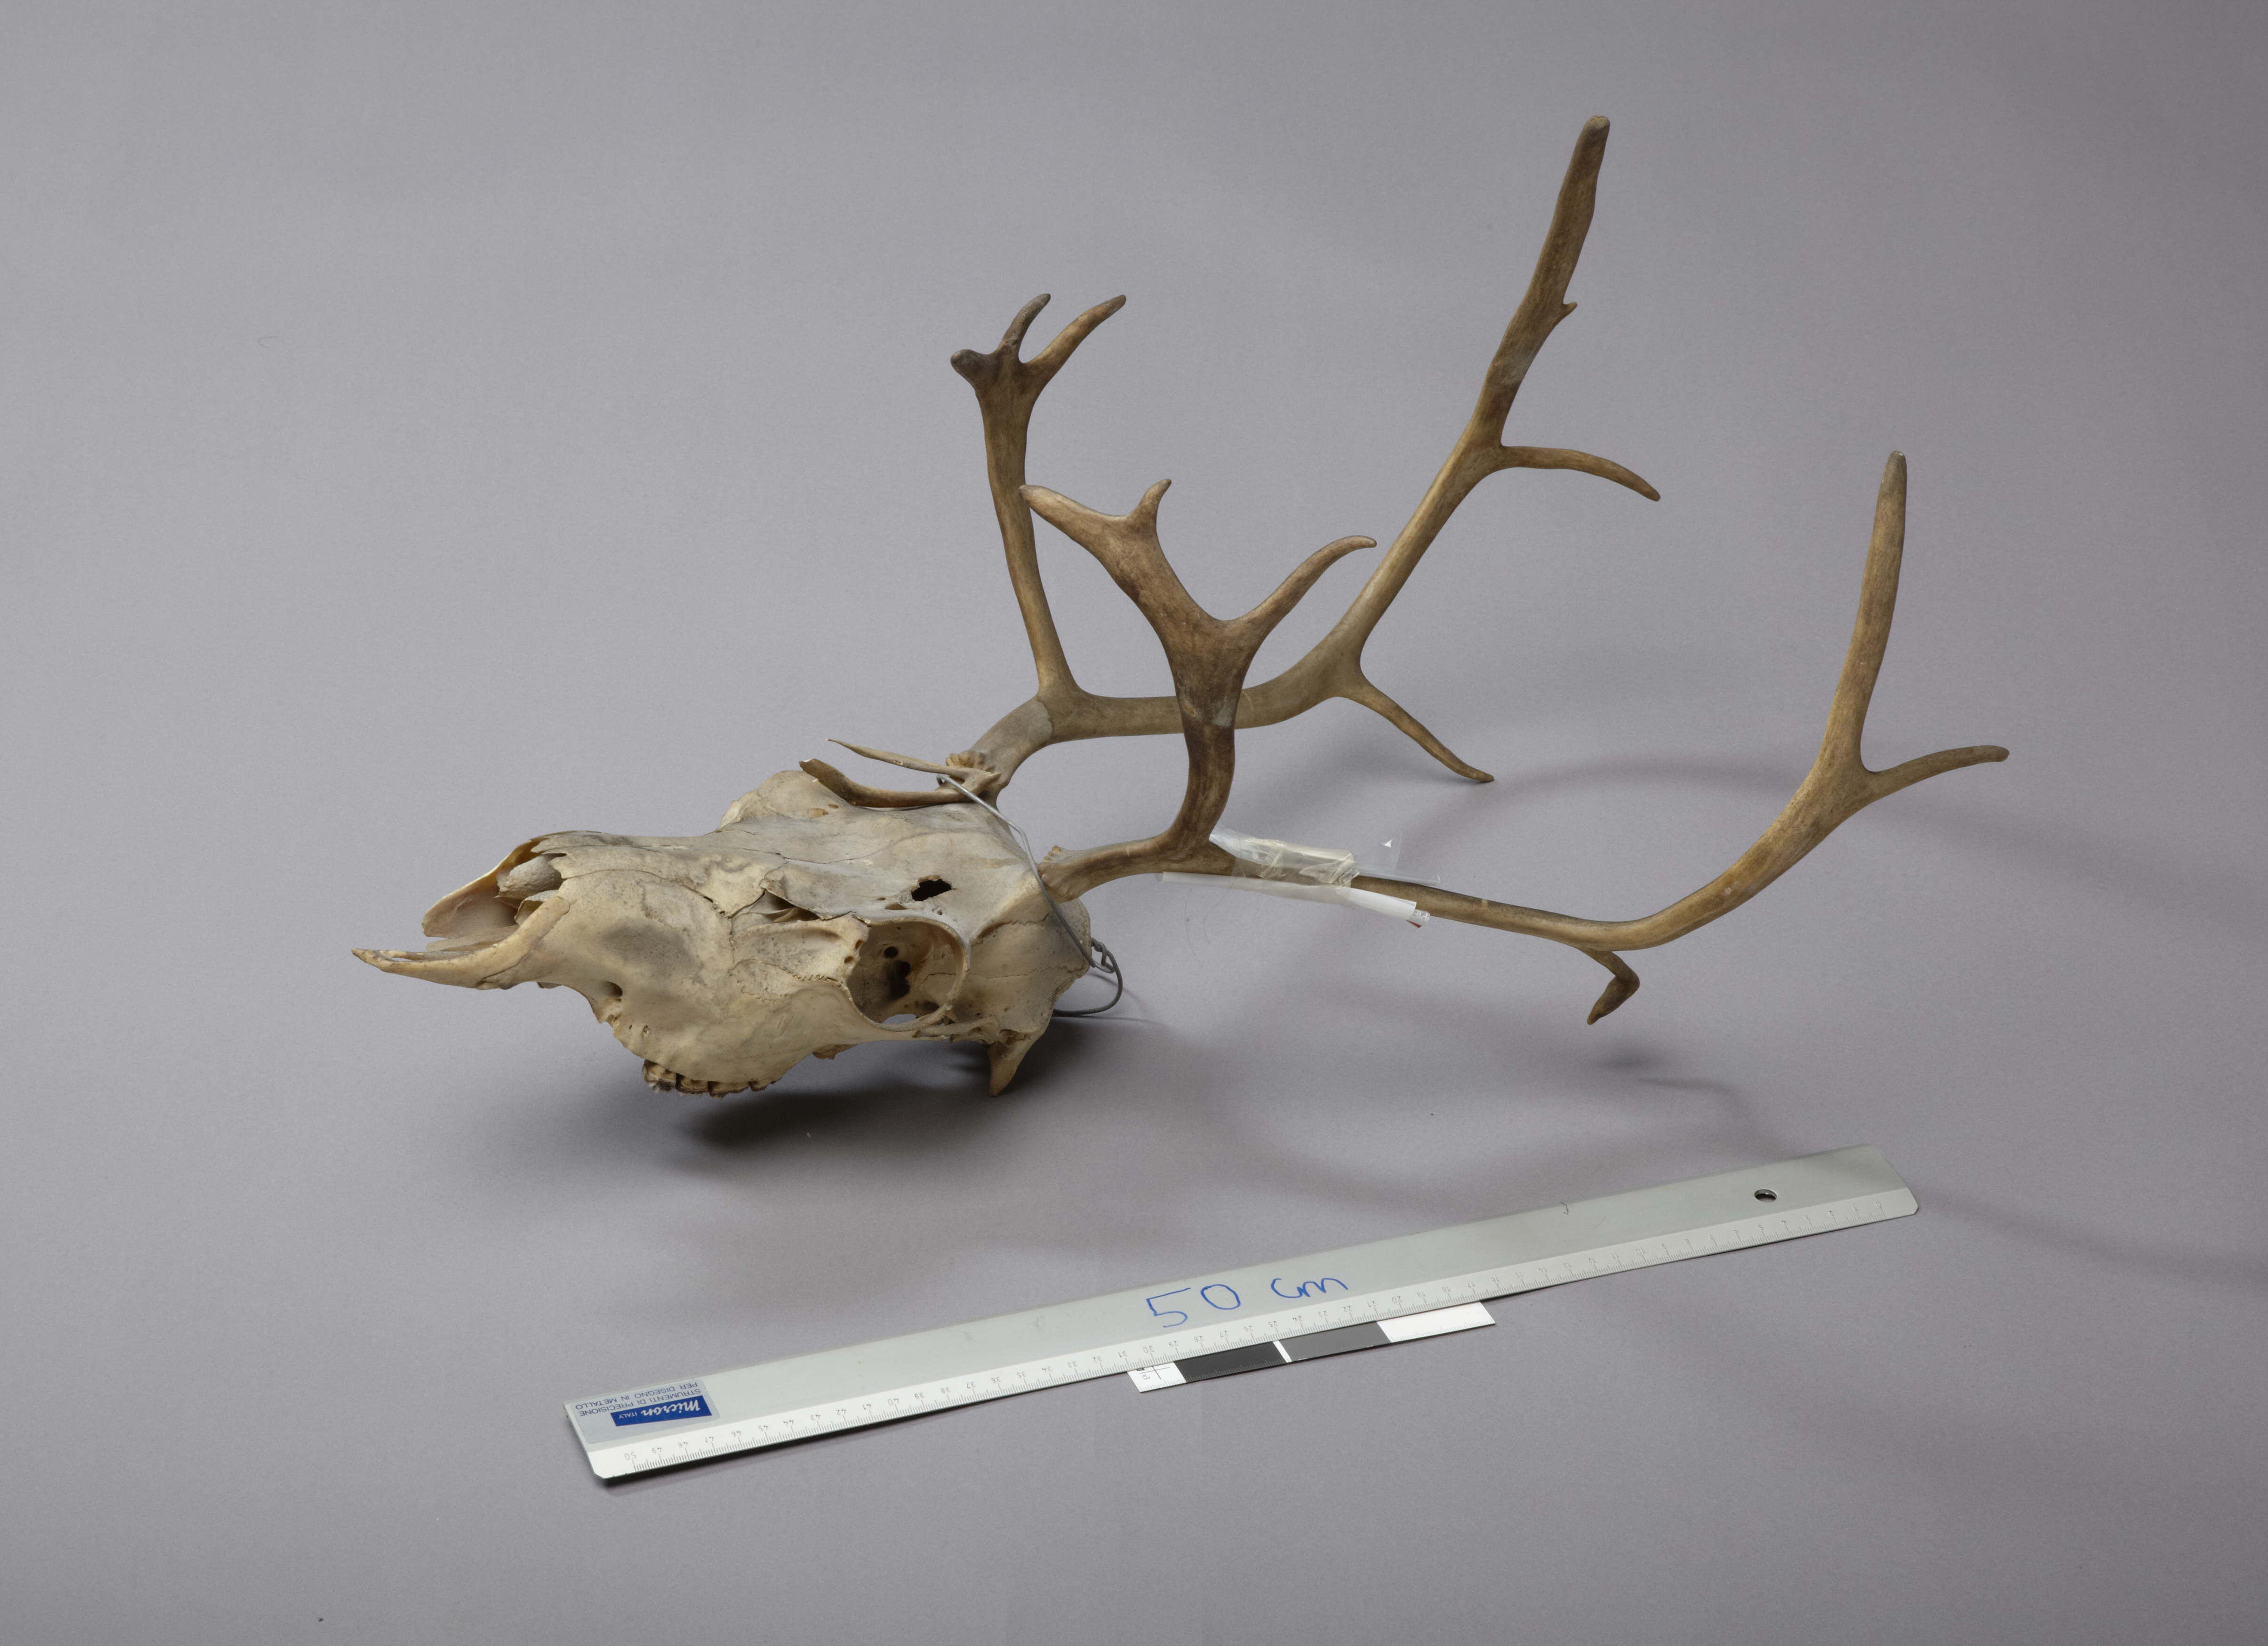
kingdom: Animalia
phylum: Chordata
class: Mammalia
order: Artiodactyla
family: Cervidae
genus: Rangifer
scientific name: Rangifer tarandus
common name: Reindeer
